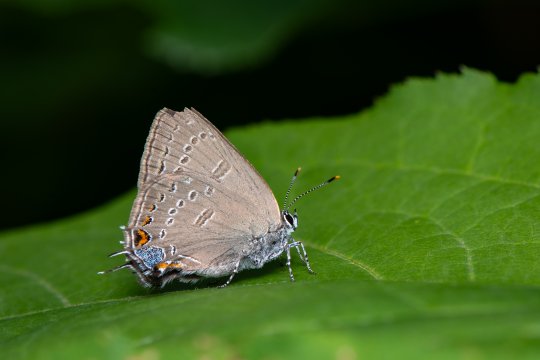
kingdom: Animalia
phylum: Arthropoda
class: Insecta
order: Lepidoptera
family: Lycaenidae
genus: Satyrium
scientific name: Satyrium edwardsii
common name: Edwards' Hairstreak
